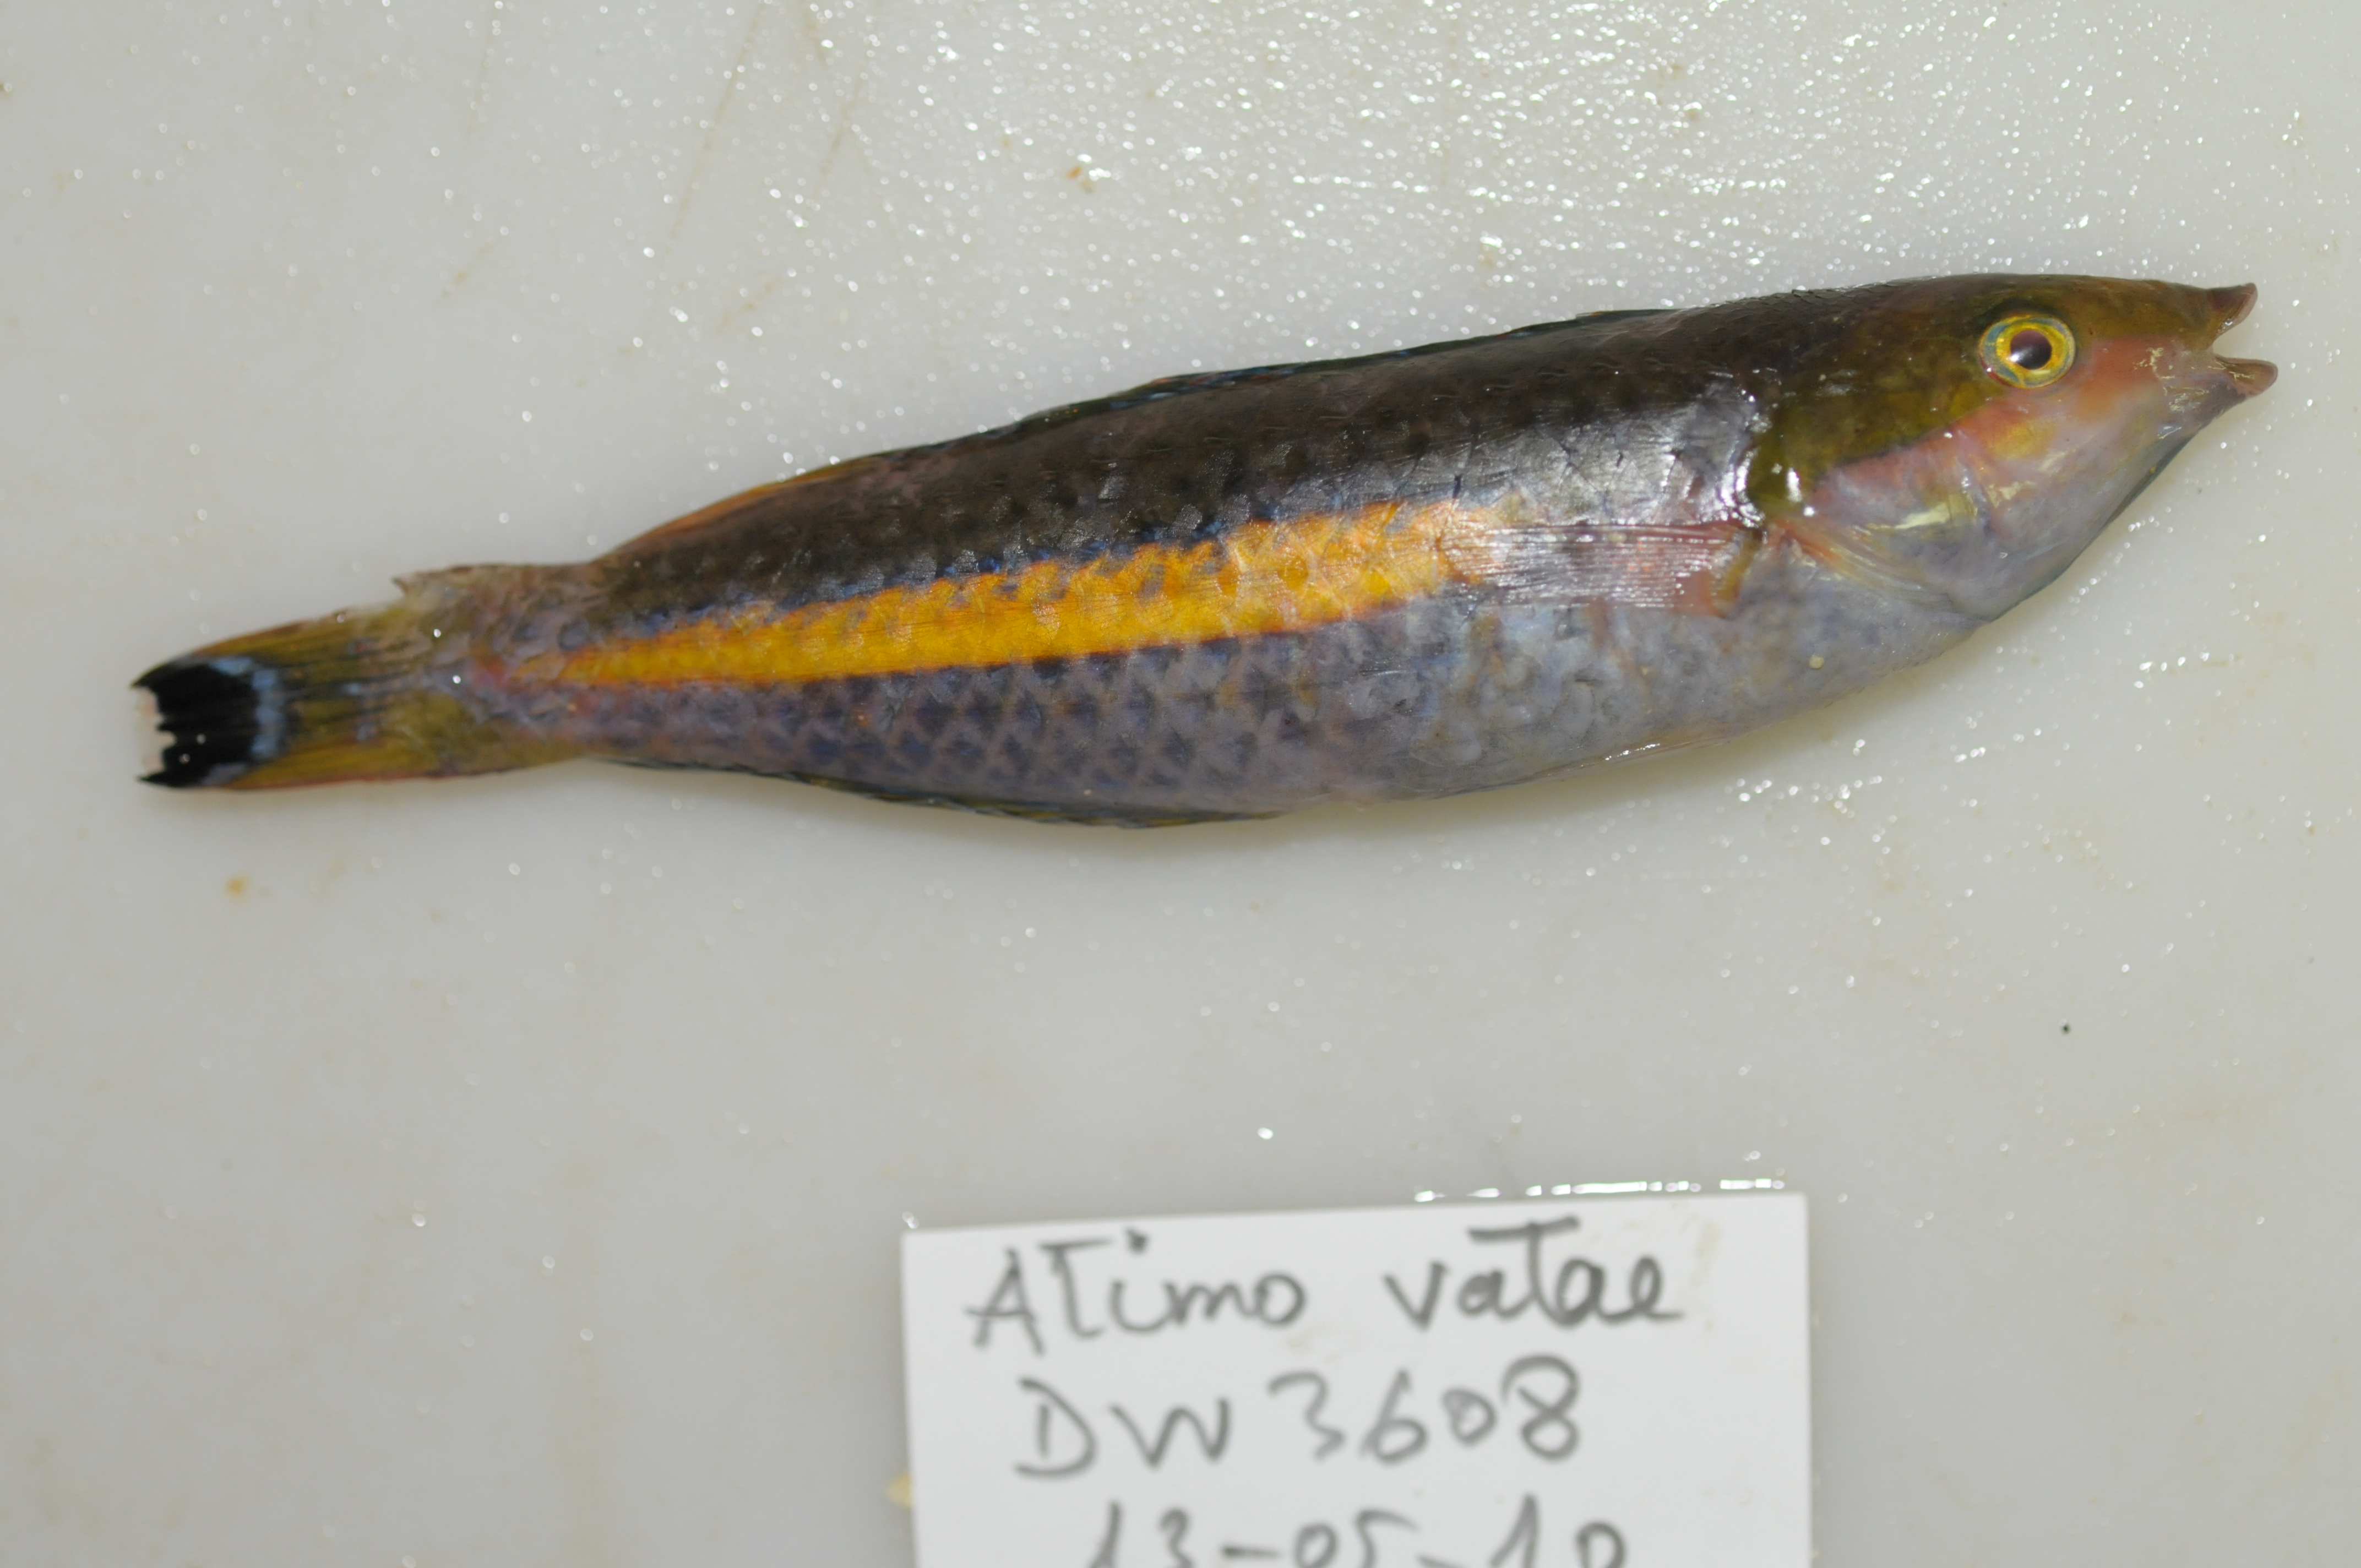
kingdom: Animalia
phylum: Chordata
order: Perciformes
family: Labridae
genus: Pseudojuloides
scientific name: Pseudojuloides
